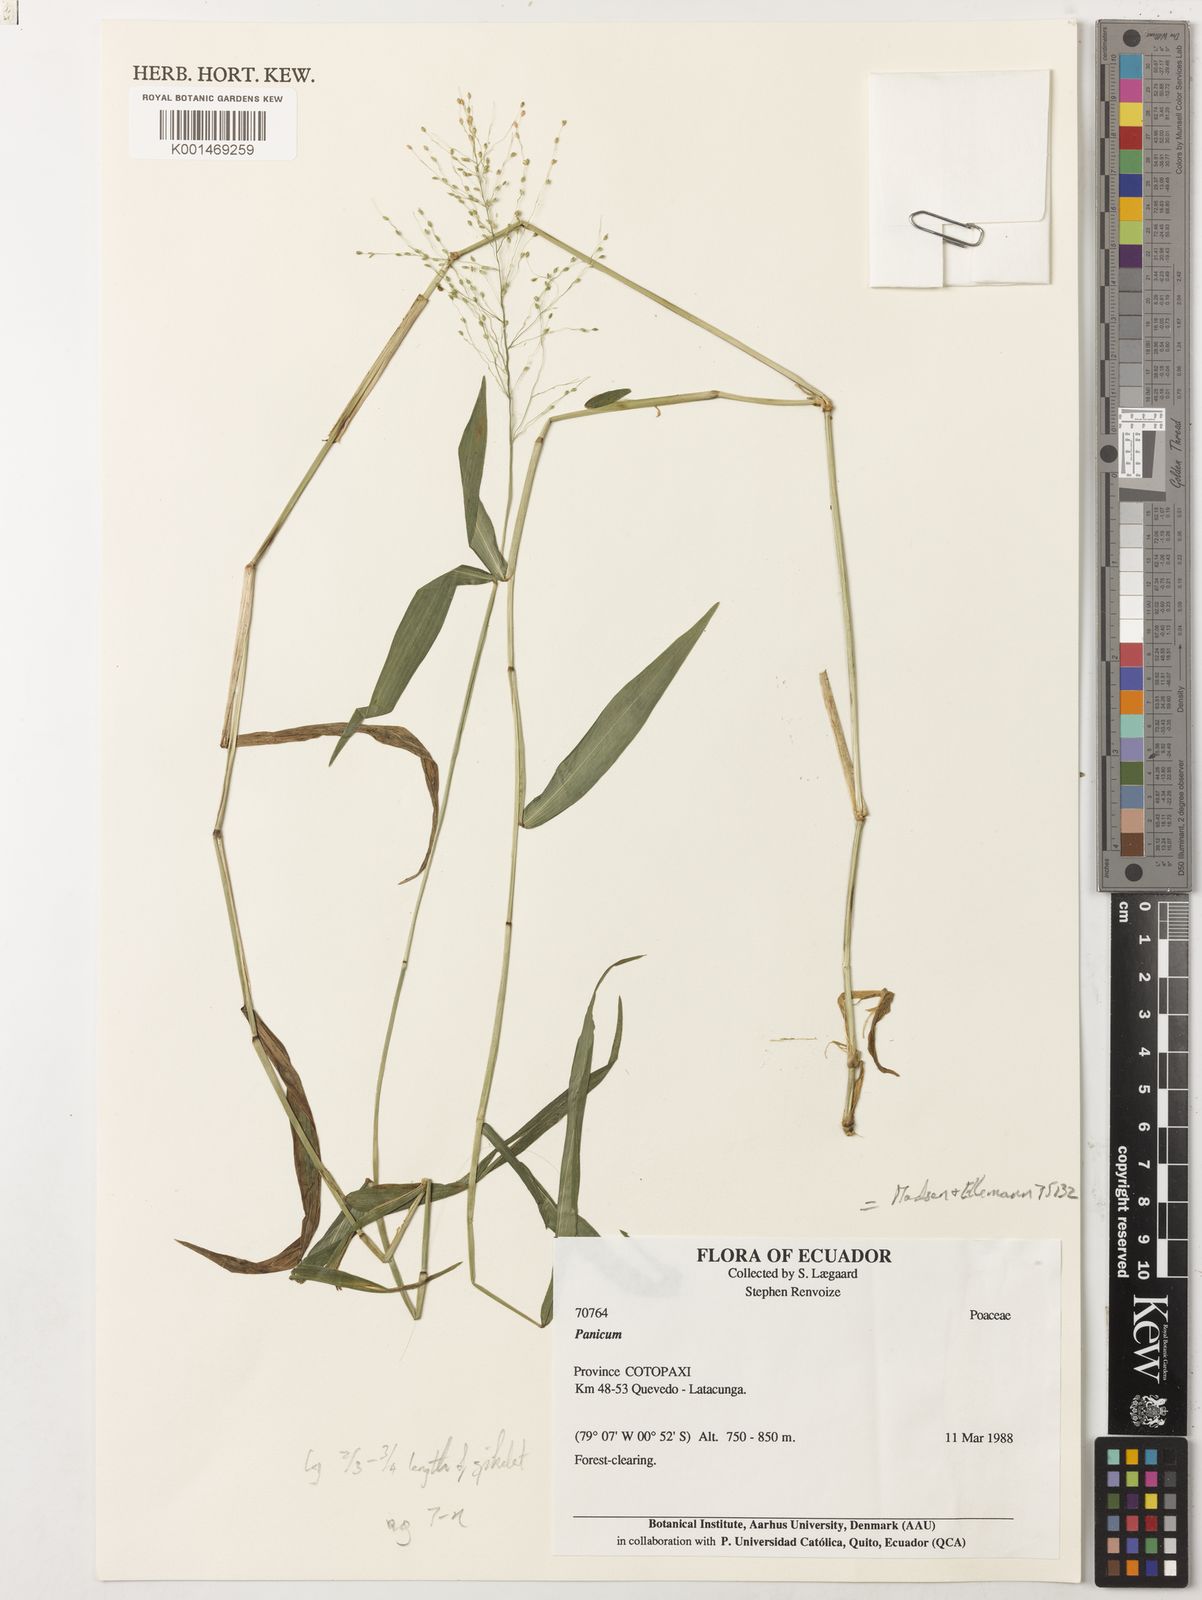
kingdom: Plantae
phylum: Tracheophyta
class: Liliopsida
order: Poales
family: Poaceae
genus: Dichanthelium
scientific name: Dichanthelium hebotes
